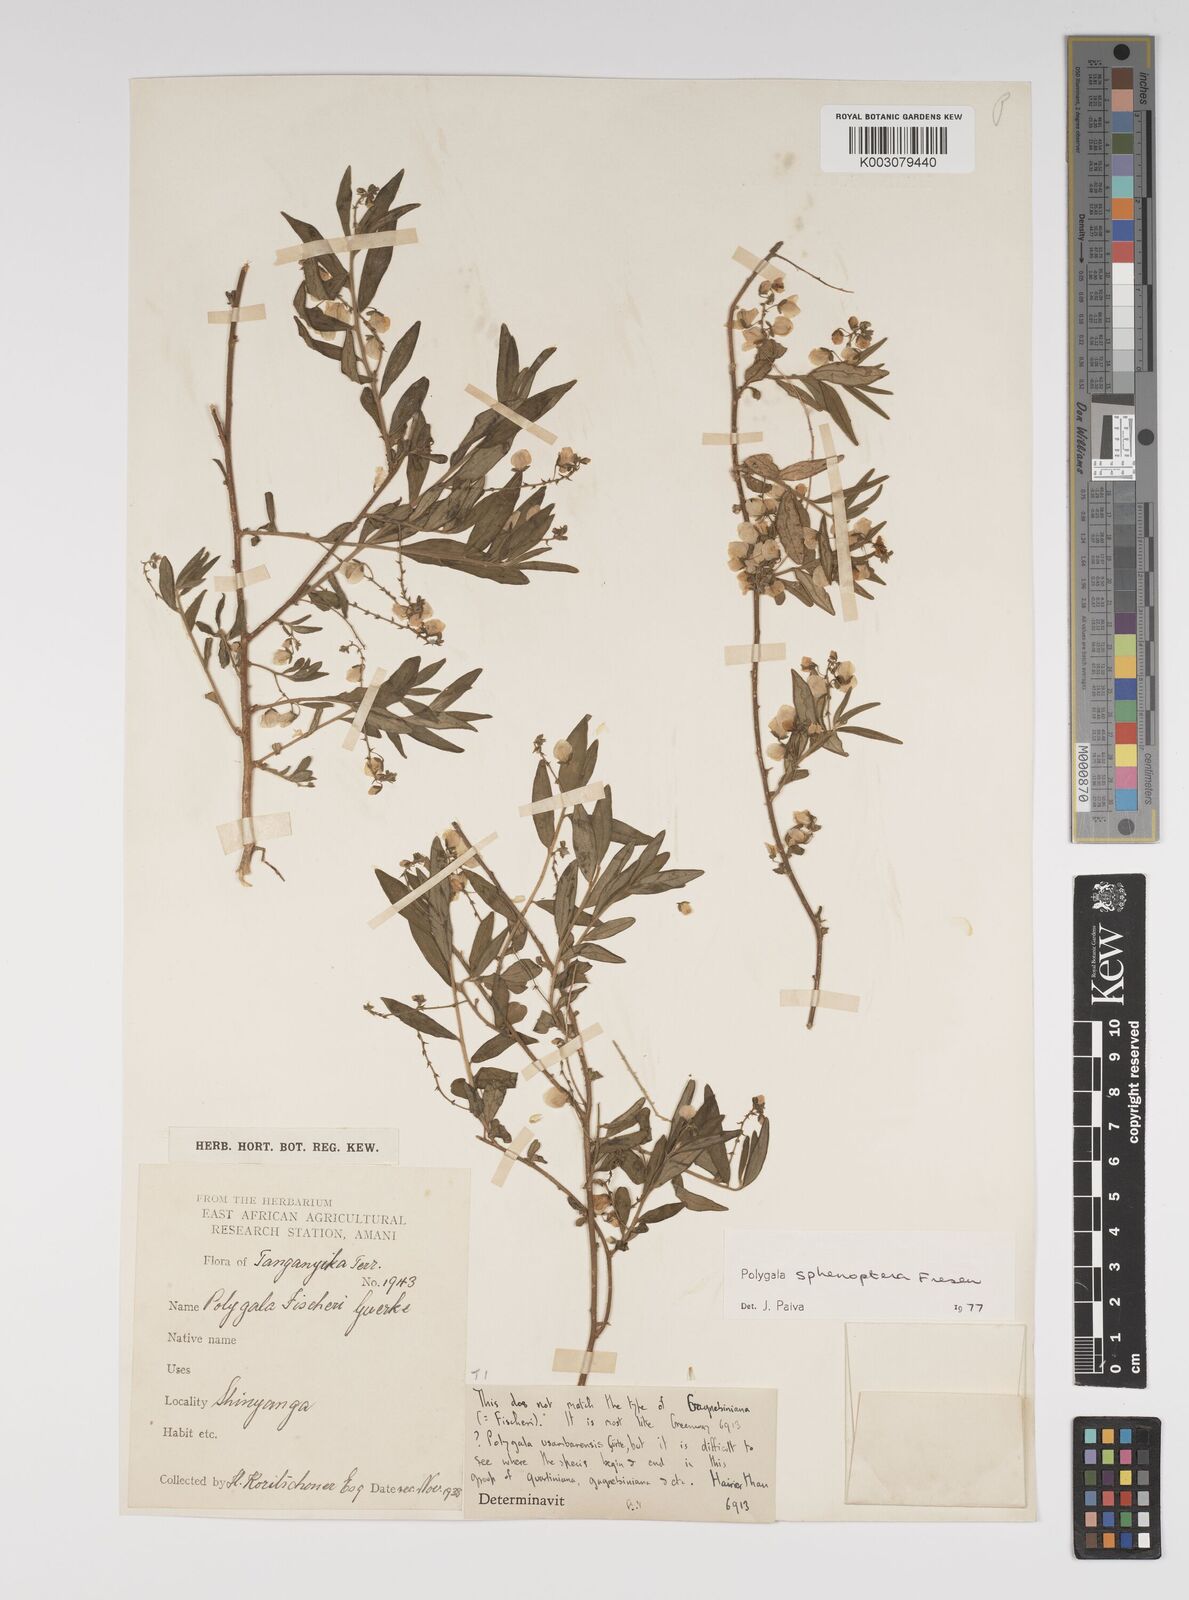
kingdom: Plantae
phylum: Tracheophyta
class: Magnoliopsida
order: Fabales
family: Polygalaceae
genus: Polygala
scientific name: Polygala sphenoptera
